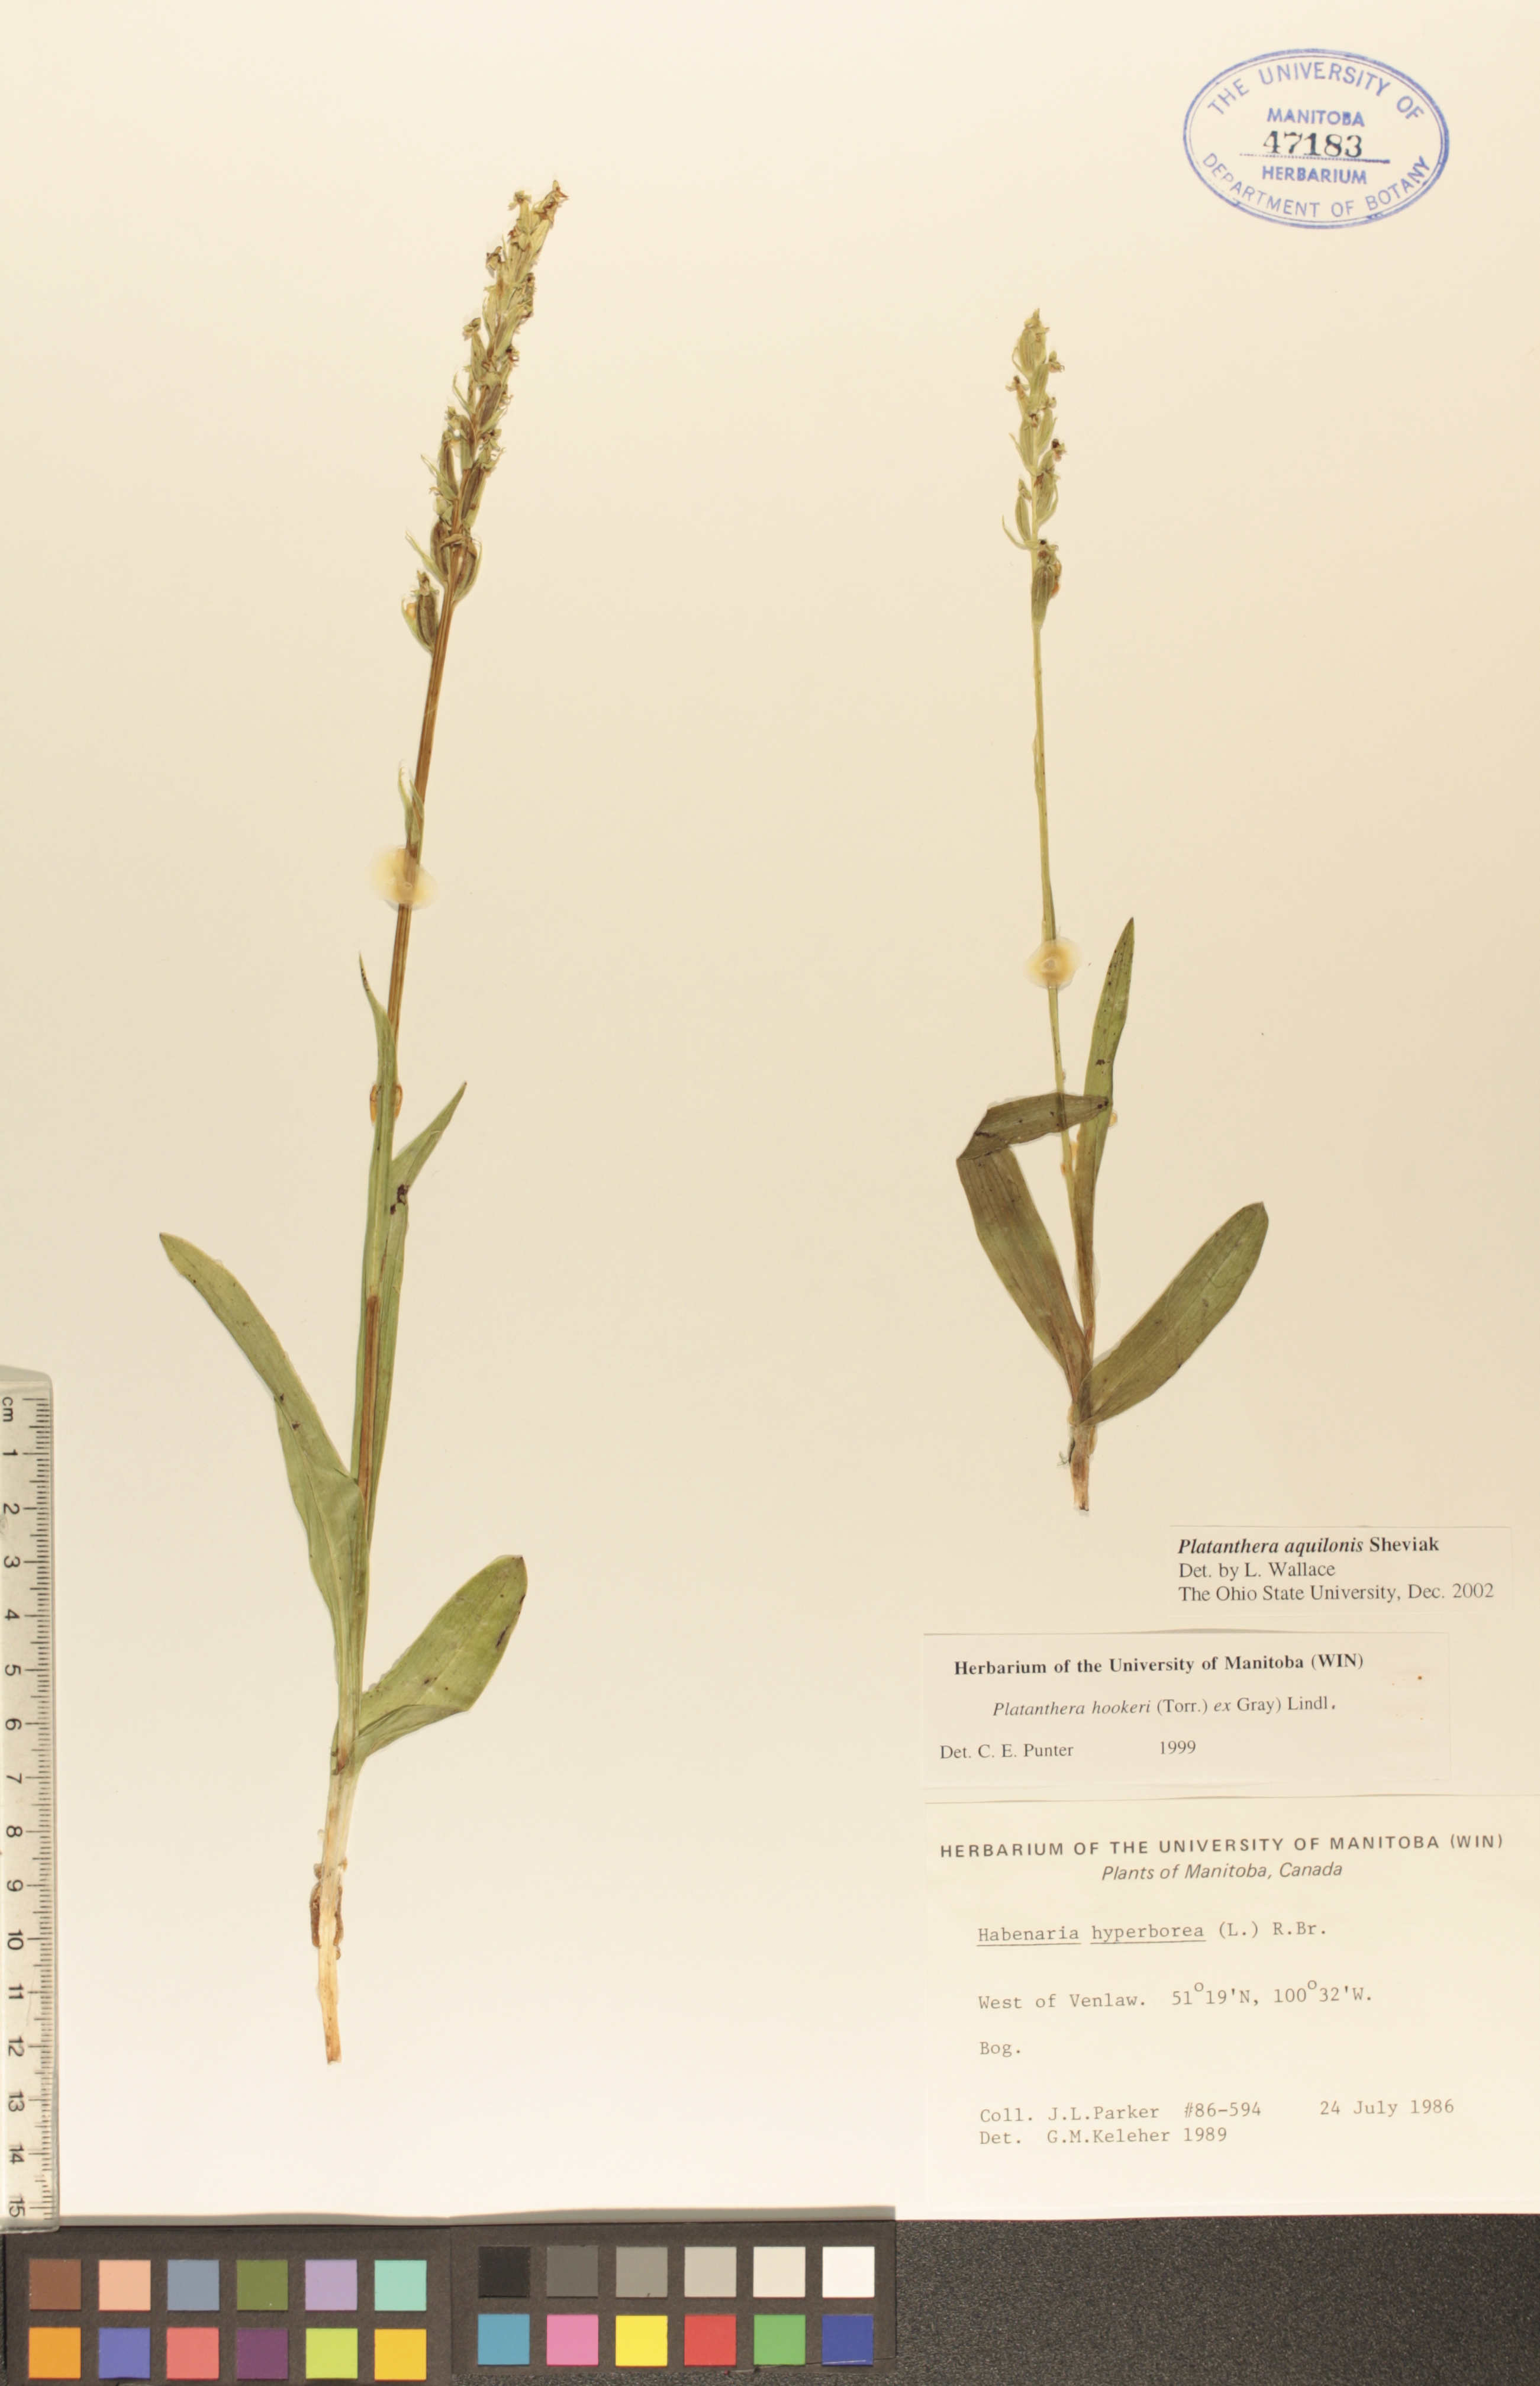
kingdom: Plantae
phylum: Tracheophyta
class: Liliopsida
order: Asparagales
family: Orchidaceae
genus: Platanthera
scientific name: Platanthera aquilonis
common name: Northern green orchid
